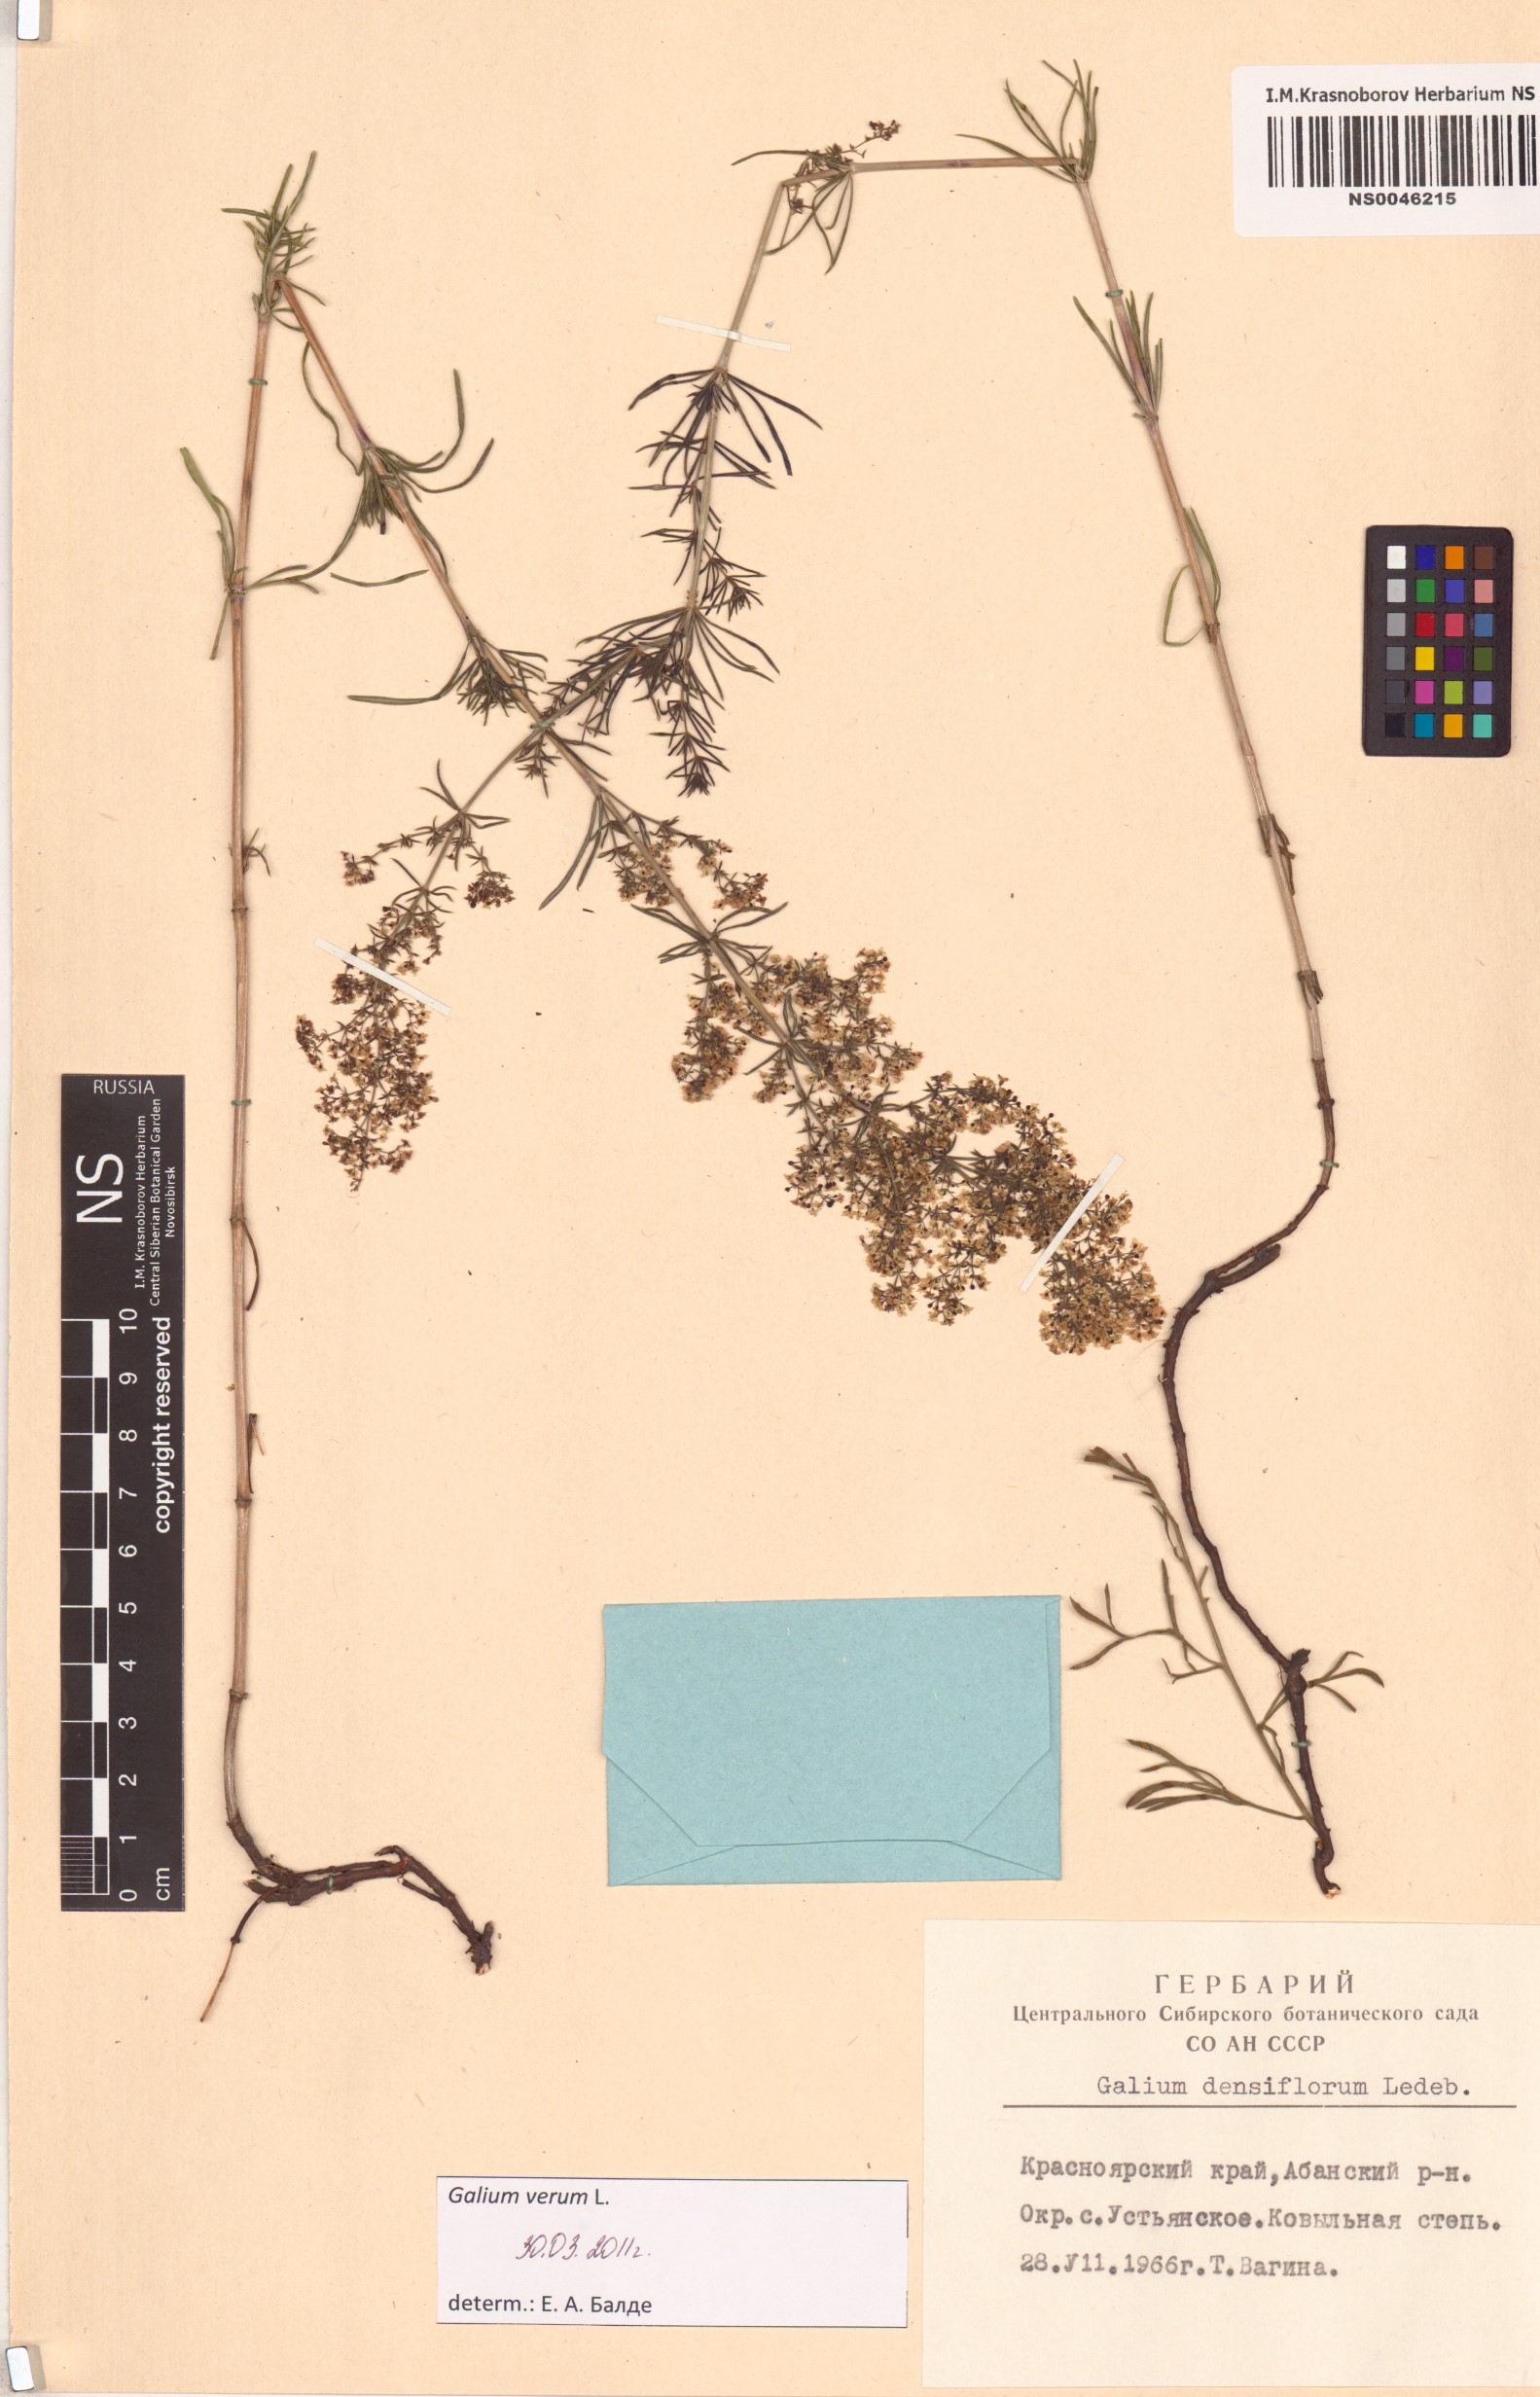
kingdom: Plantae
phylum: Tracheophyta
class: Magnoliopsida
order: Gentianales
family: Rubiaceae
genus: Galium
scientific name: Galium verum
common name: Lady's bedstraw
